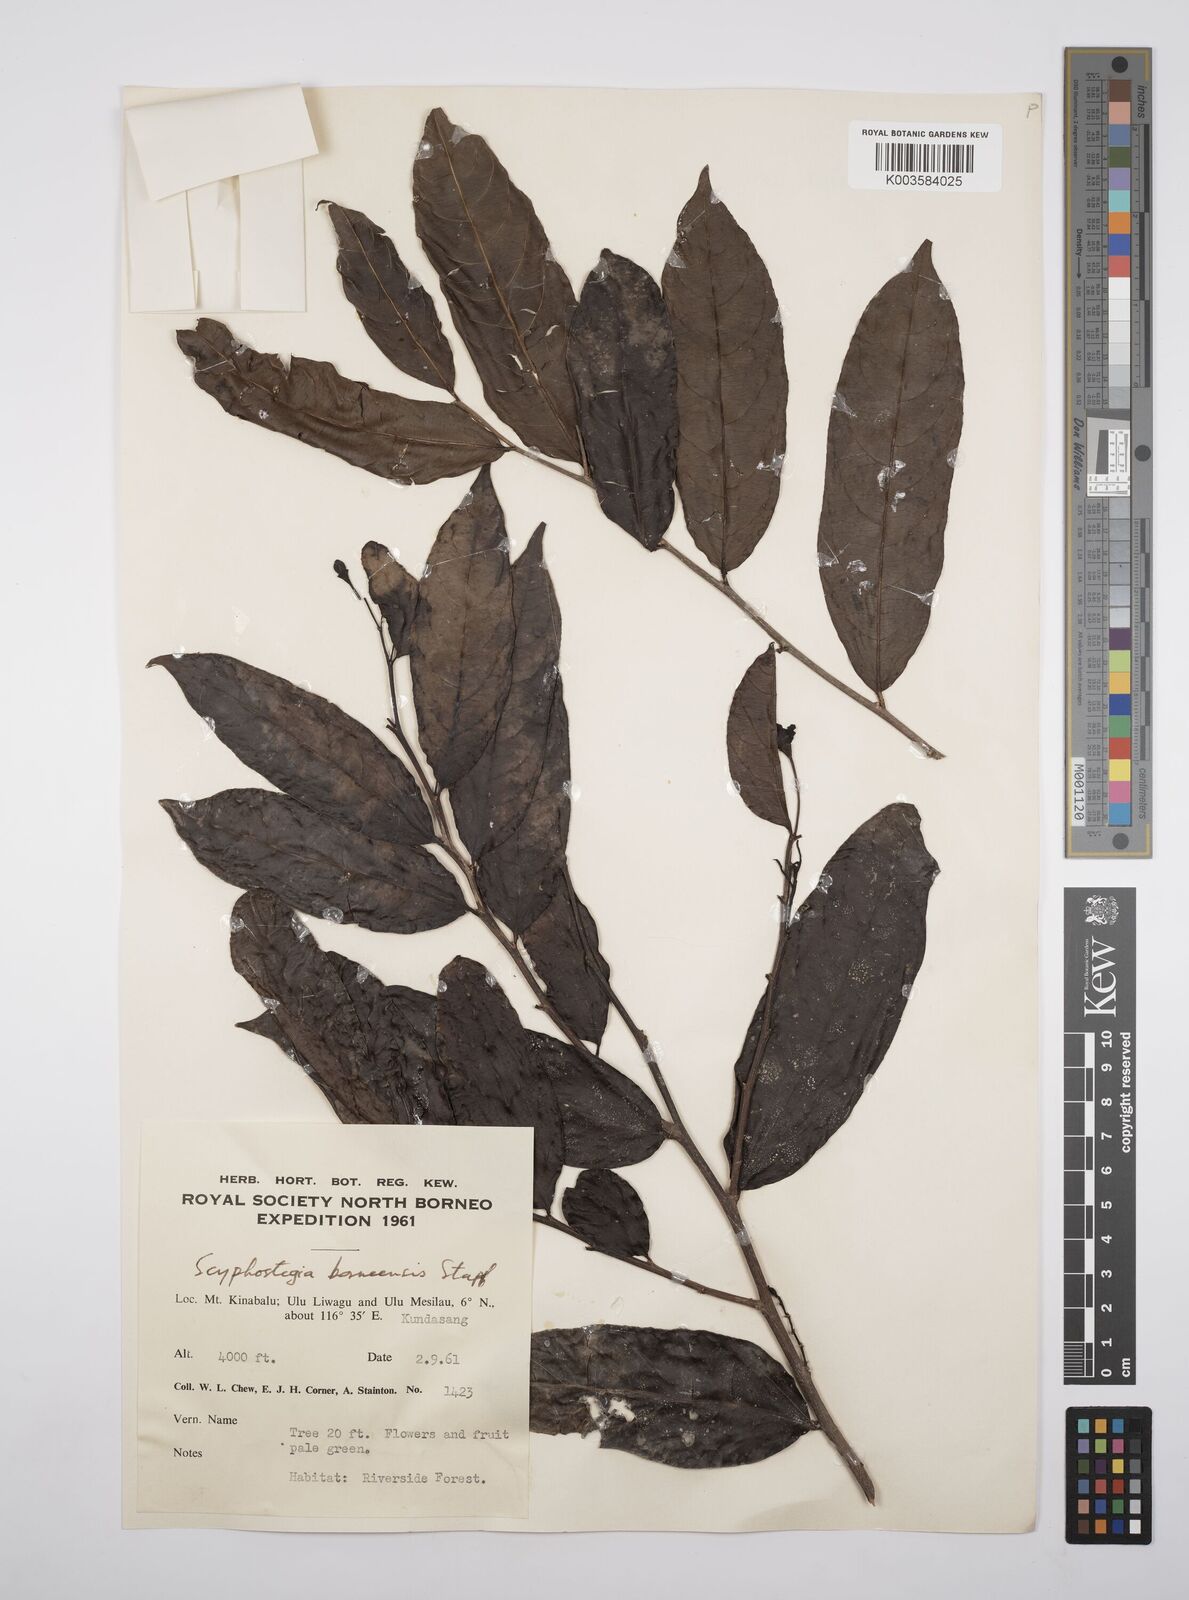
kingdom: Plantae
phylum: Tracheophyta
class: Magnoliopsida
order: Malpighiales
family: Salicaceae
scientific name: Salicaceae
